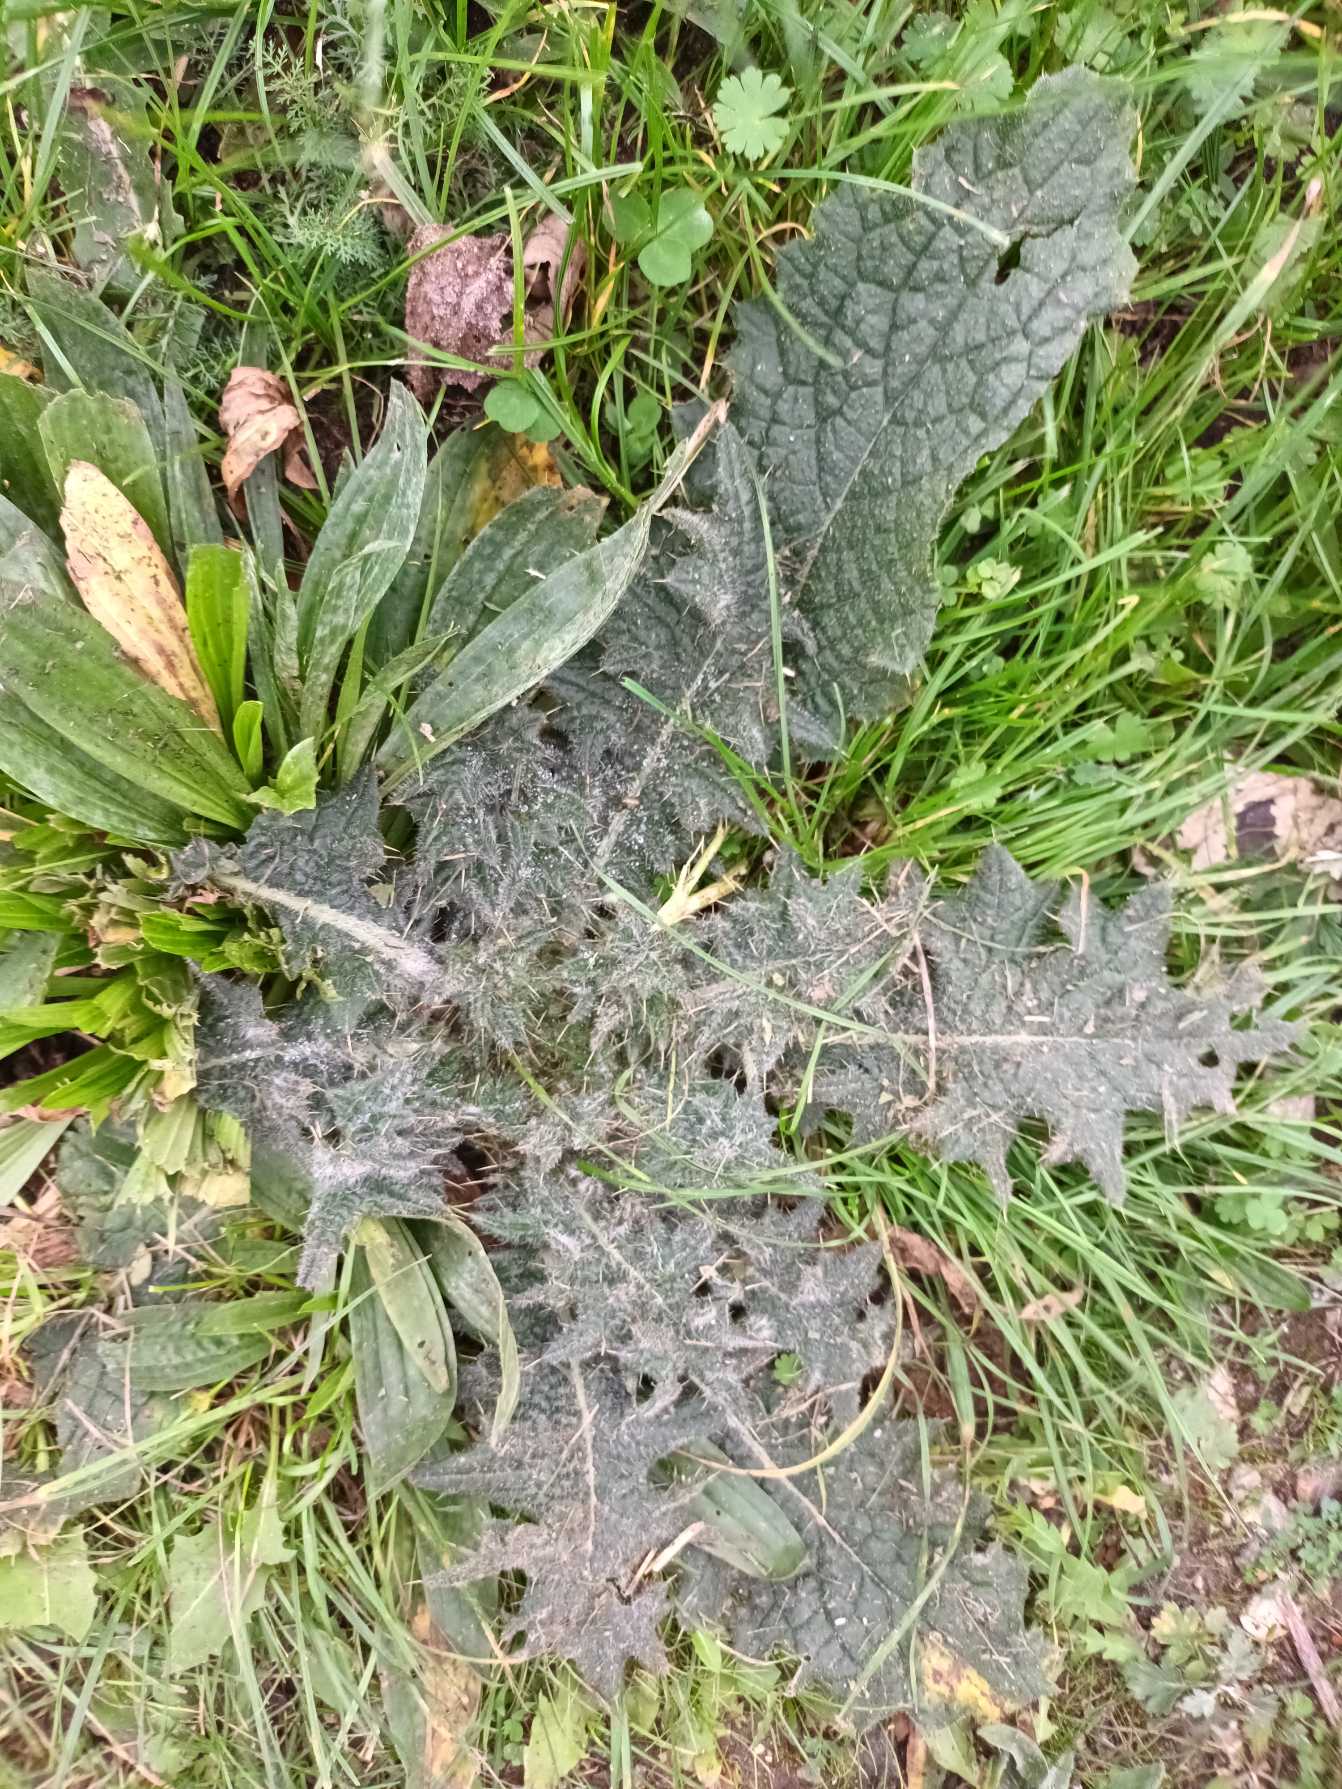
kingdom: Plantae
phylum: Tracheophyta
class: Magnoliopsida
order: Asterales
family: Asteraceae
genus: Cirsium
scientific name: Cirsium vulgare
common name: Horse-tidsel
